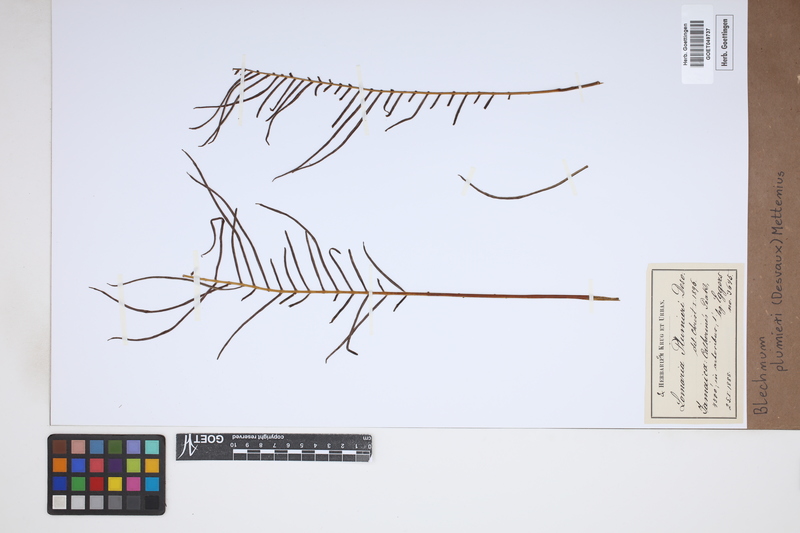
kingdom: Plantae
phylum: Tracheophyta
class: Polypodiopsida
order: Polypodiales
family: Blechnaceae
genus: Lomaridium
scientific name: Lomaridium binervatum
